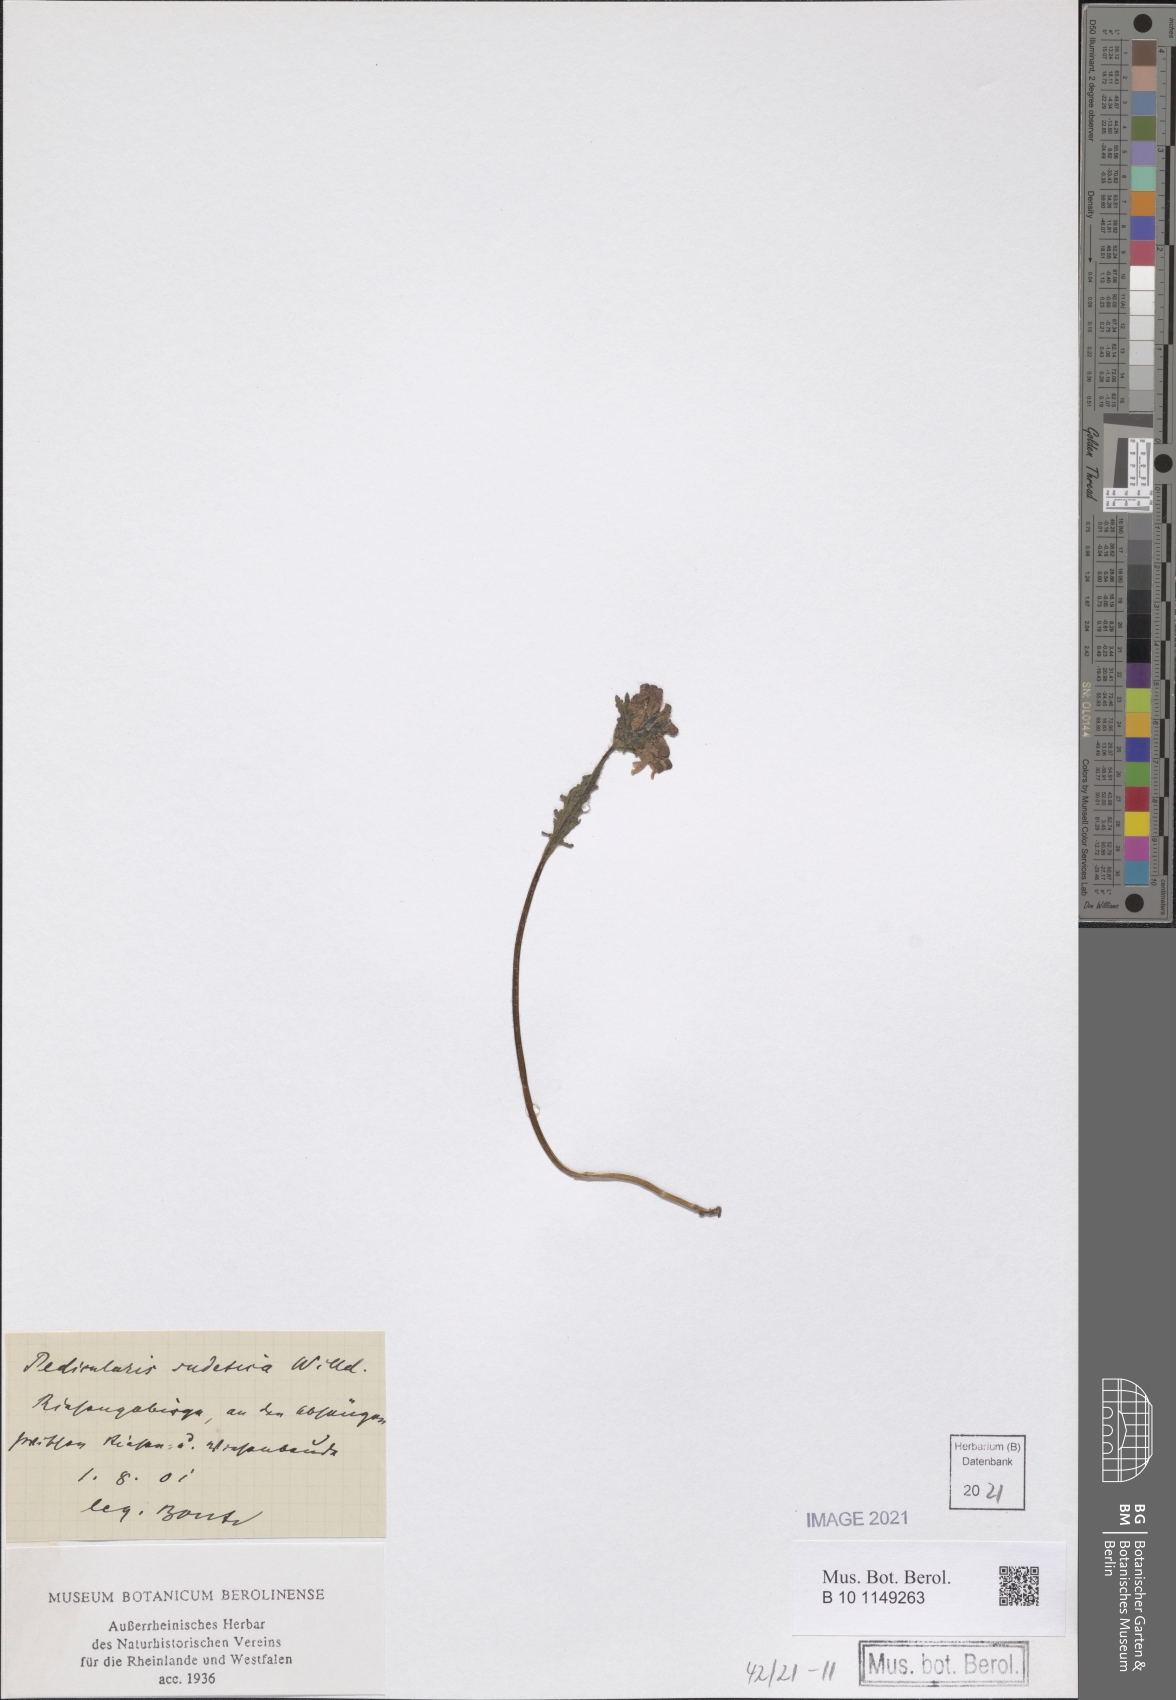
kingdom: Plantae
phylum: Tracheophyta
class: Magnoliopsida
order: Lamiales
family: Orobanchaceae
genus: Pedicularis
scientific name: Pedicularis sudetica
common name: Sudeten lousewort
